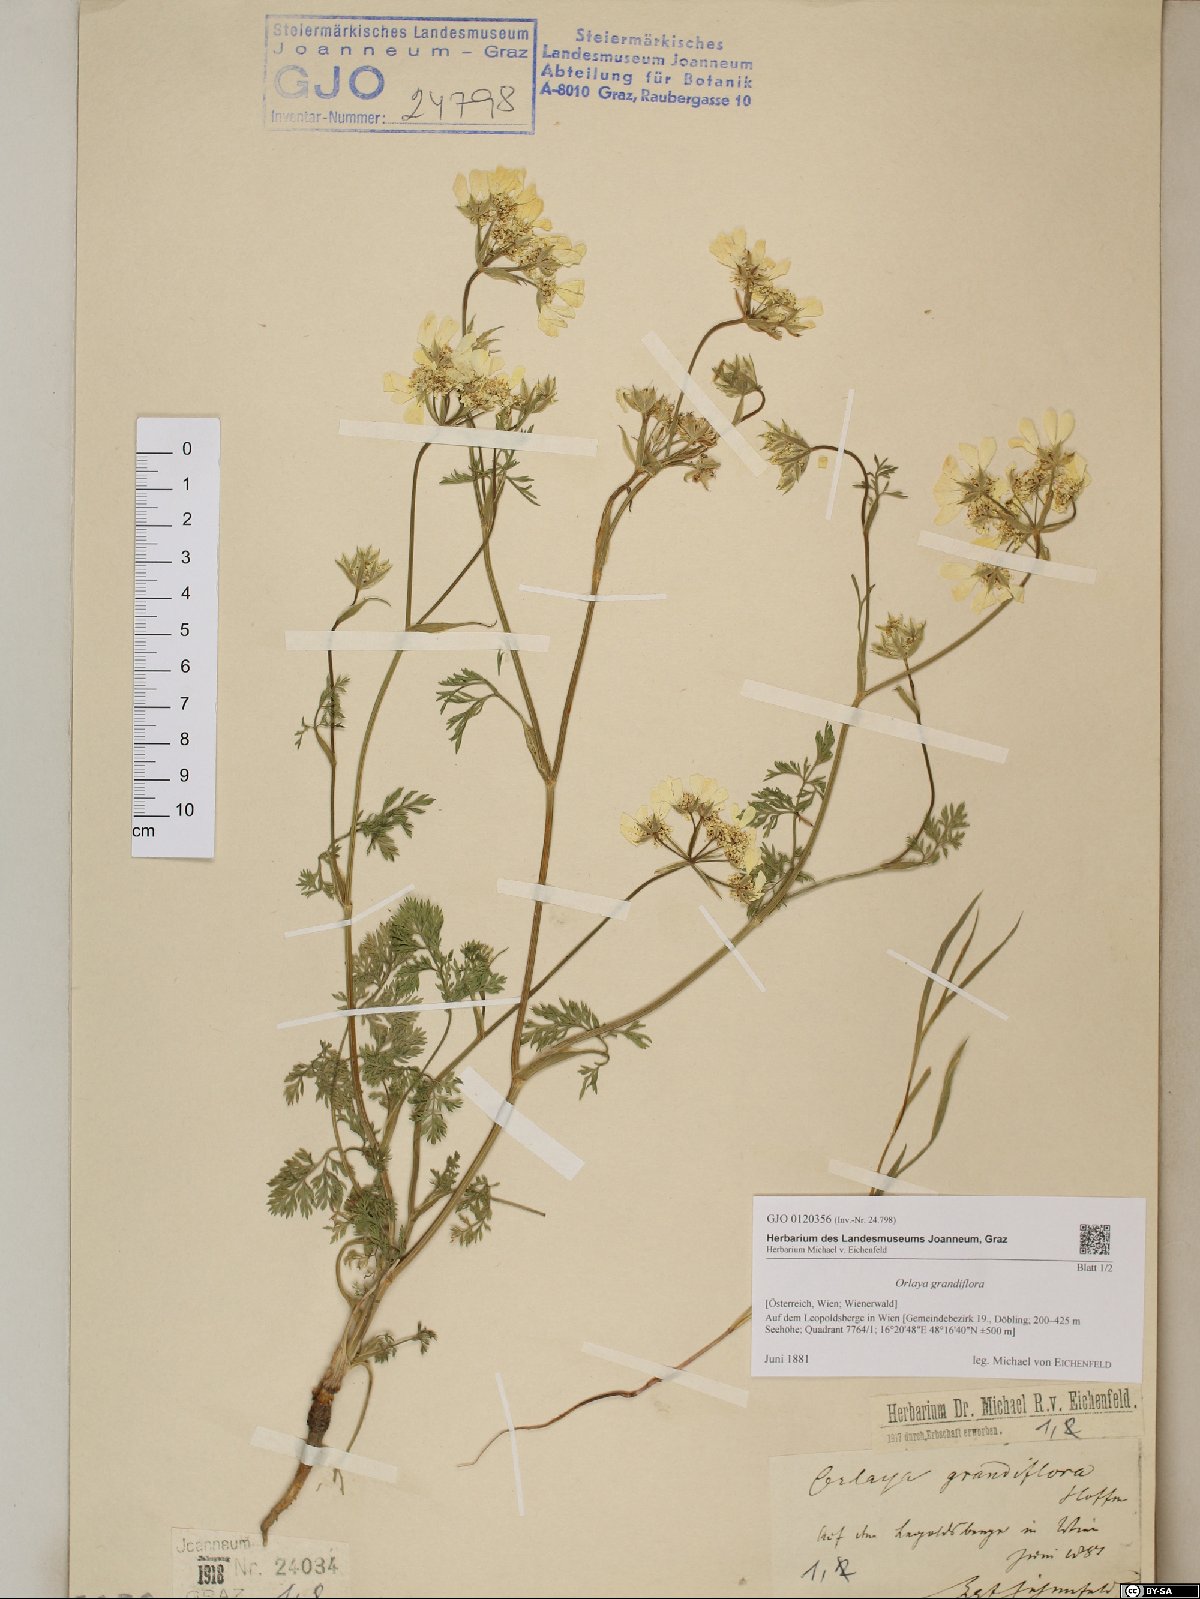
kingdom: Plantae
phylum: Tracheophyta
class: Magnoliopsida
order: Apiales
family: Apiaceae
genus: Orlaya
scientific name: Orlaya grandiflora
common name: White lace flower
